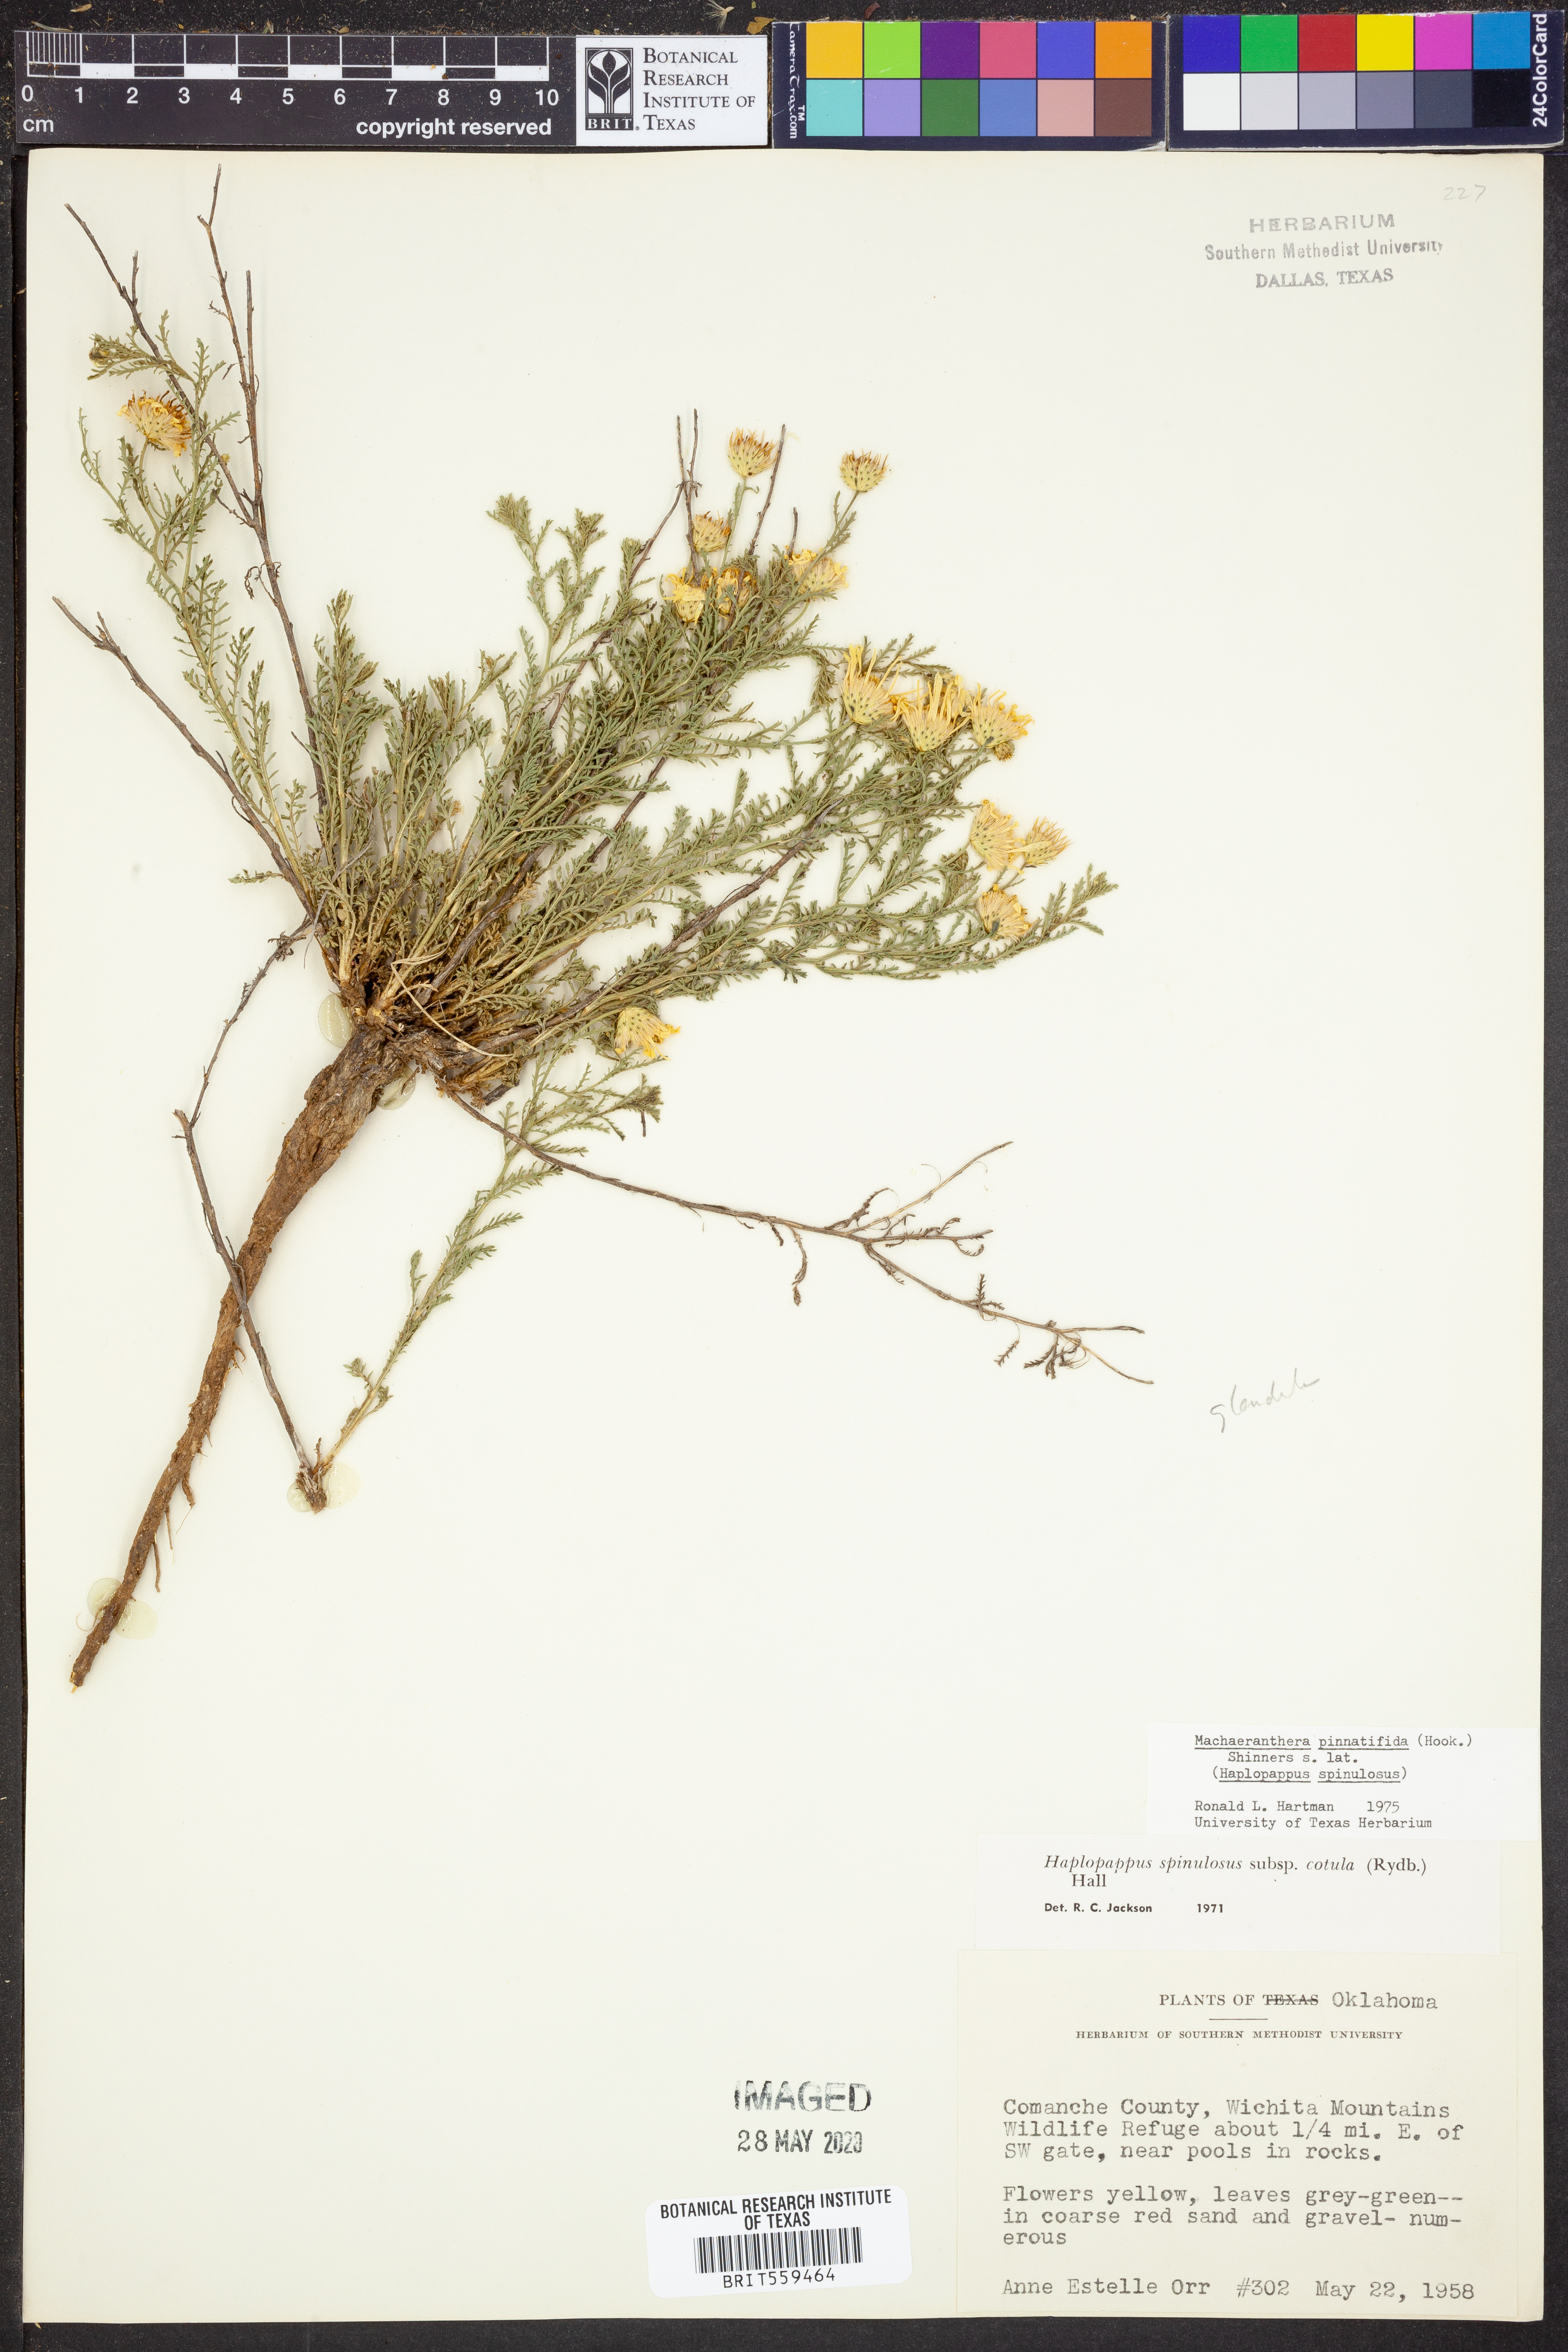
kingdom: Plantae
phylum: Tracheophyta
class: Magnoliopsida
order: Asterales
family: Asteraceae
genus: Xanthisma
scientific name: Xanthisma spinulosum
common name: Spiny goldenweed
